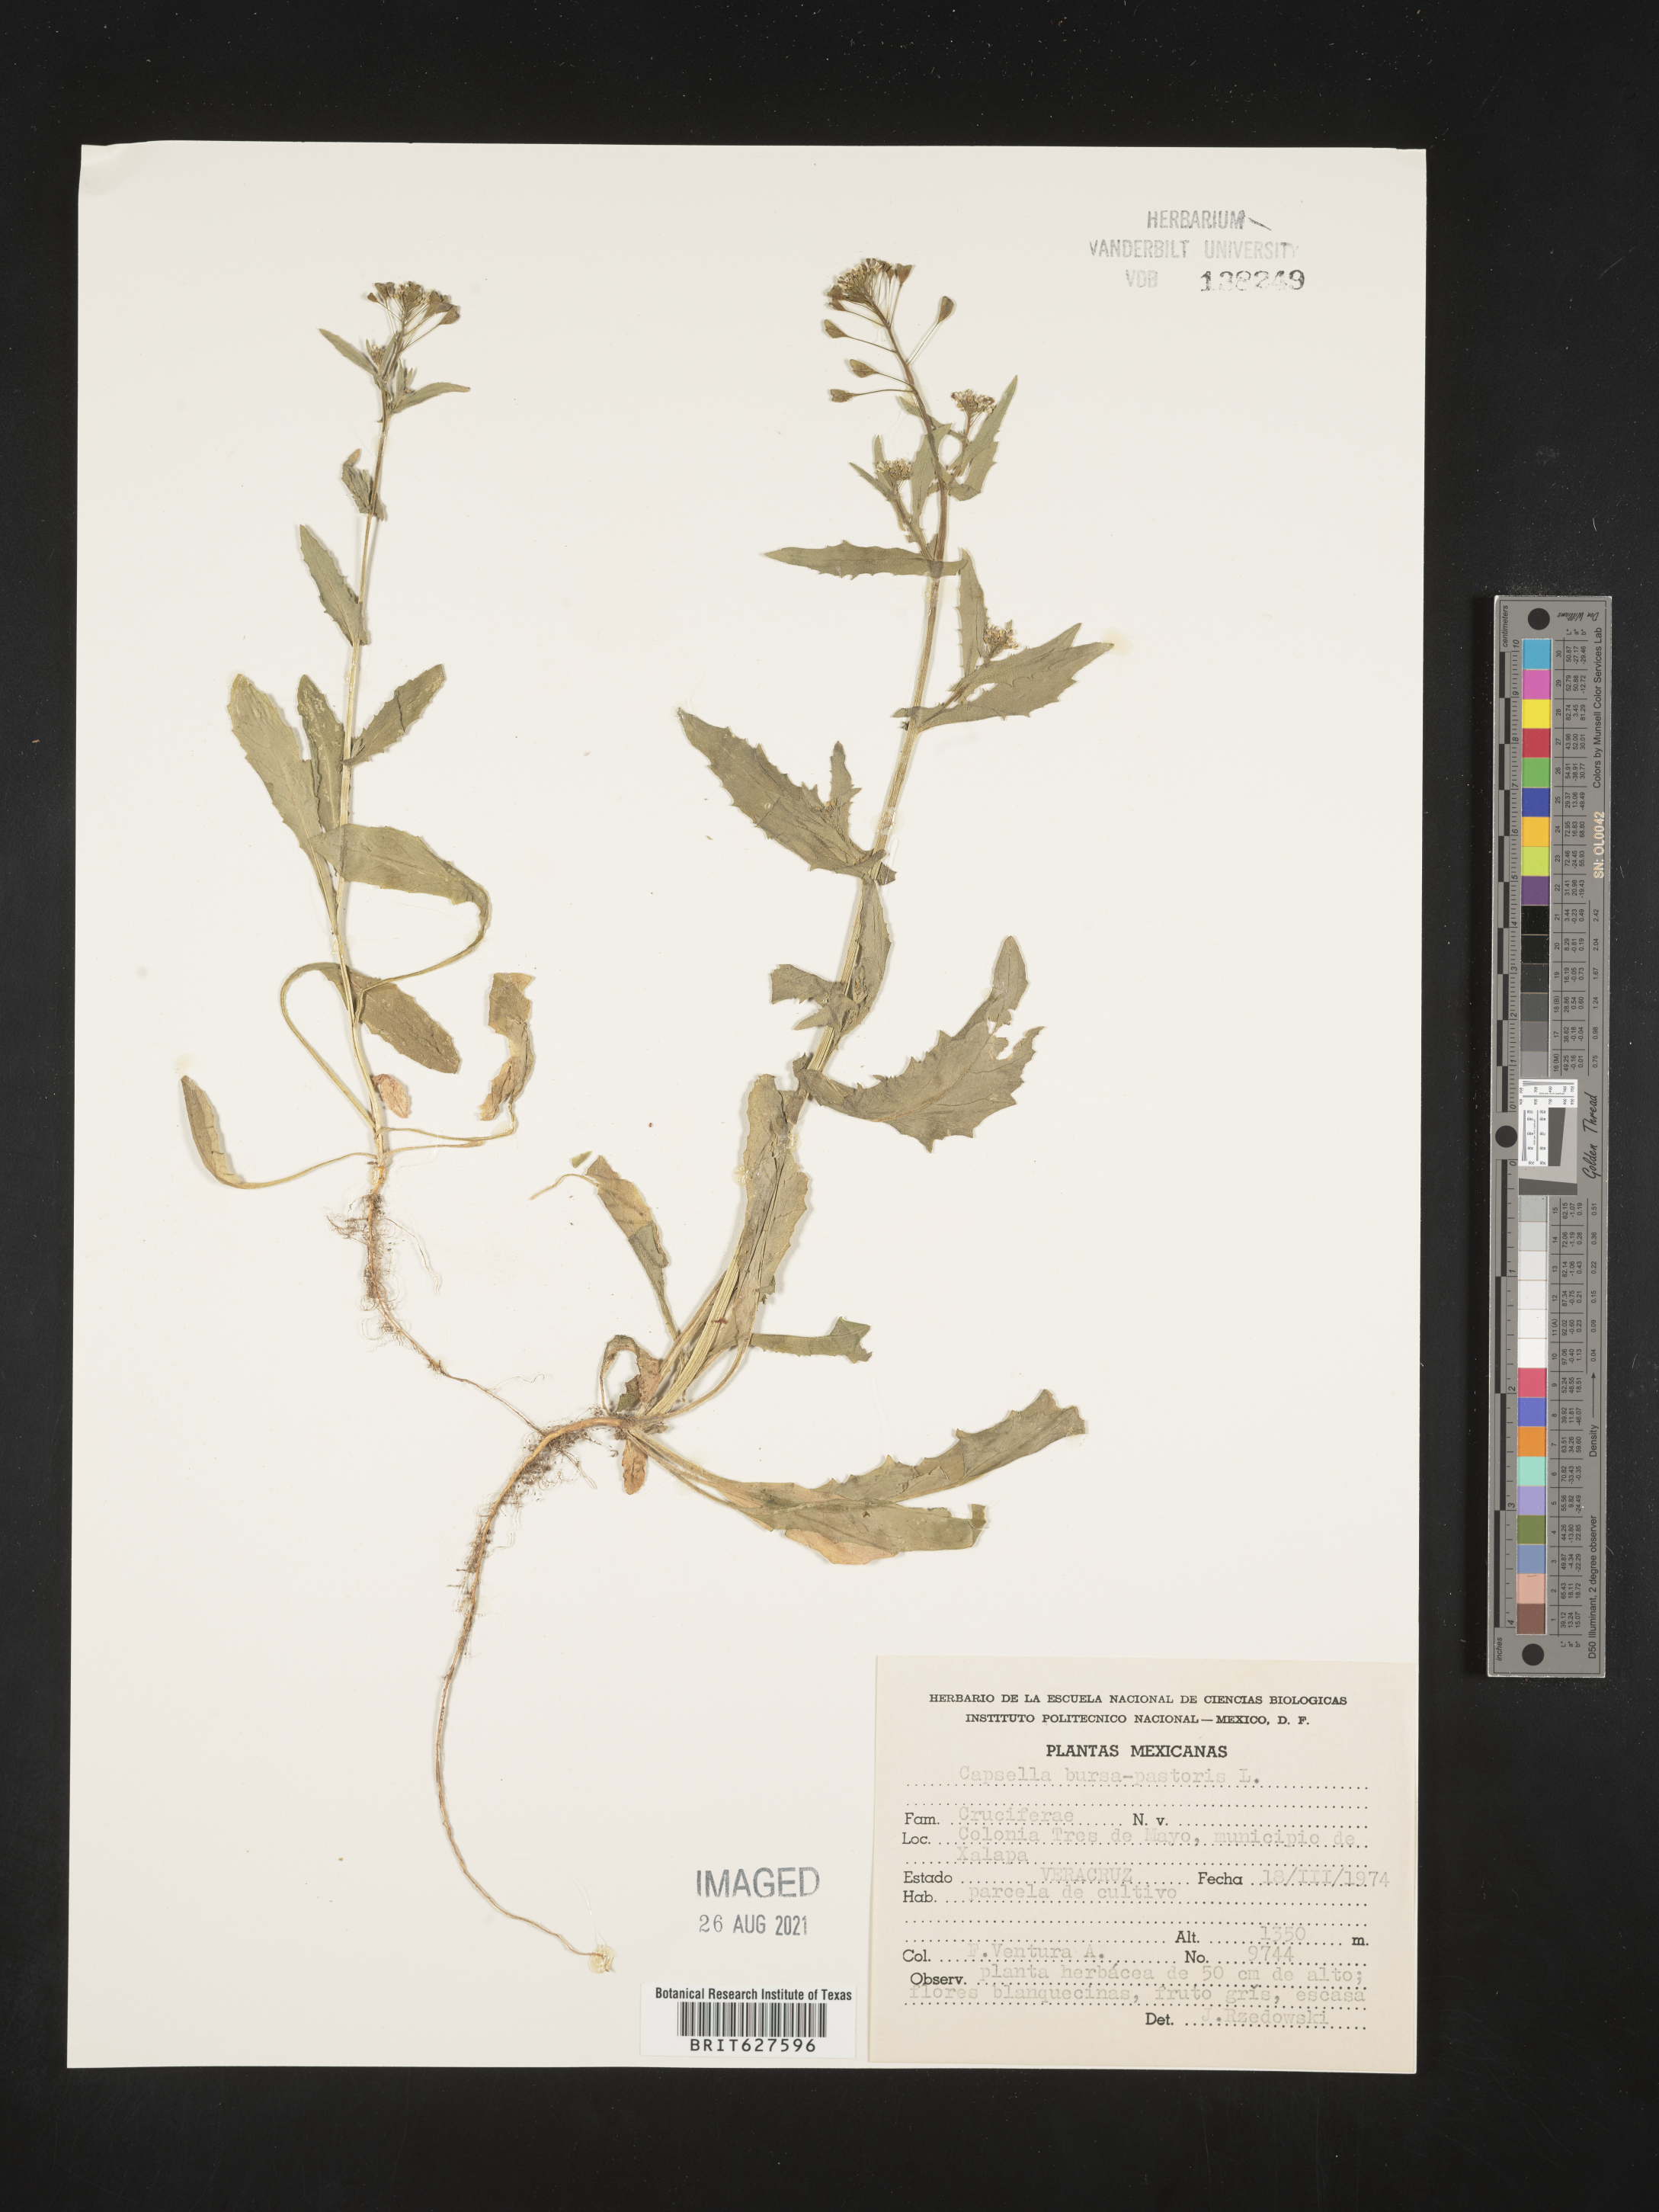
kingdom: Plantae
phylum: Tracheophyta
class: Magnoliopsida
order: Brassicales
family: Brassicaceae
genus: Capsella
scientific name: Capsella
